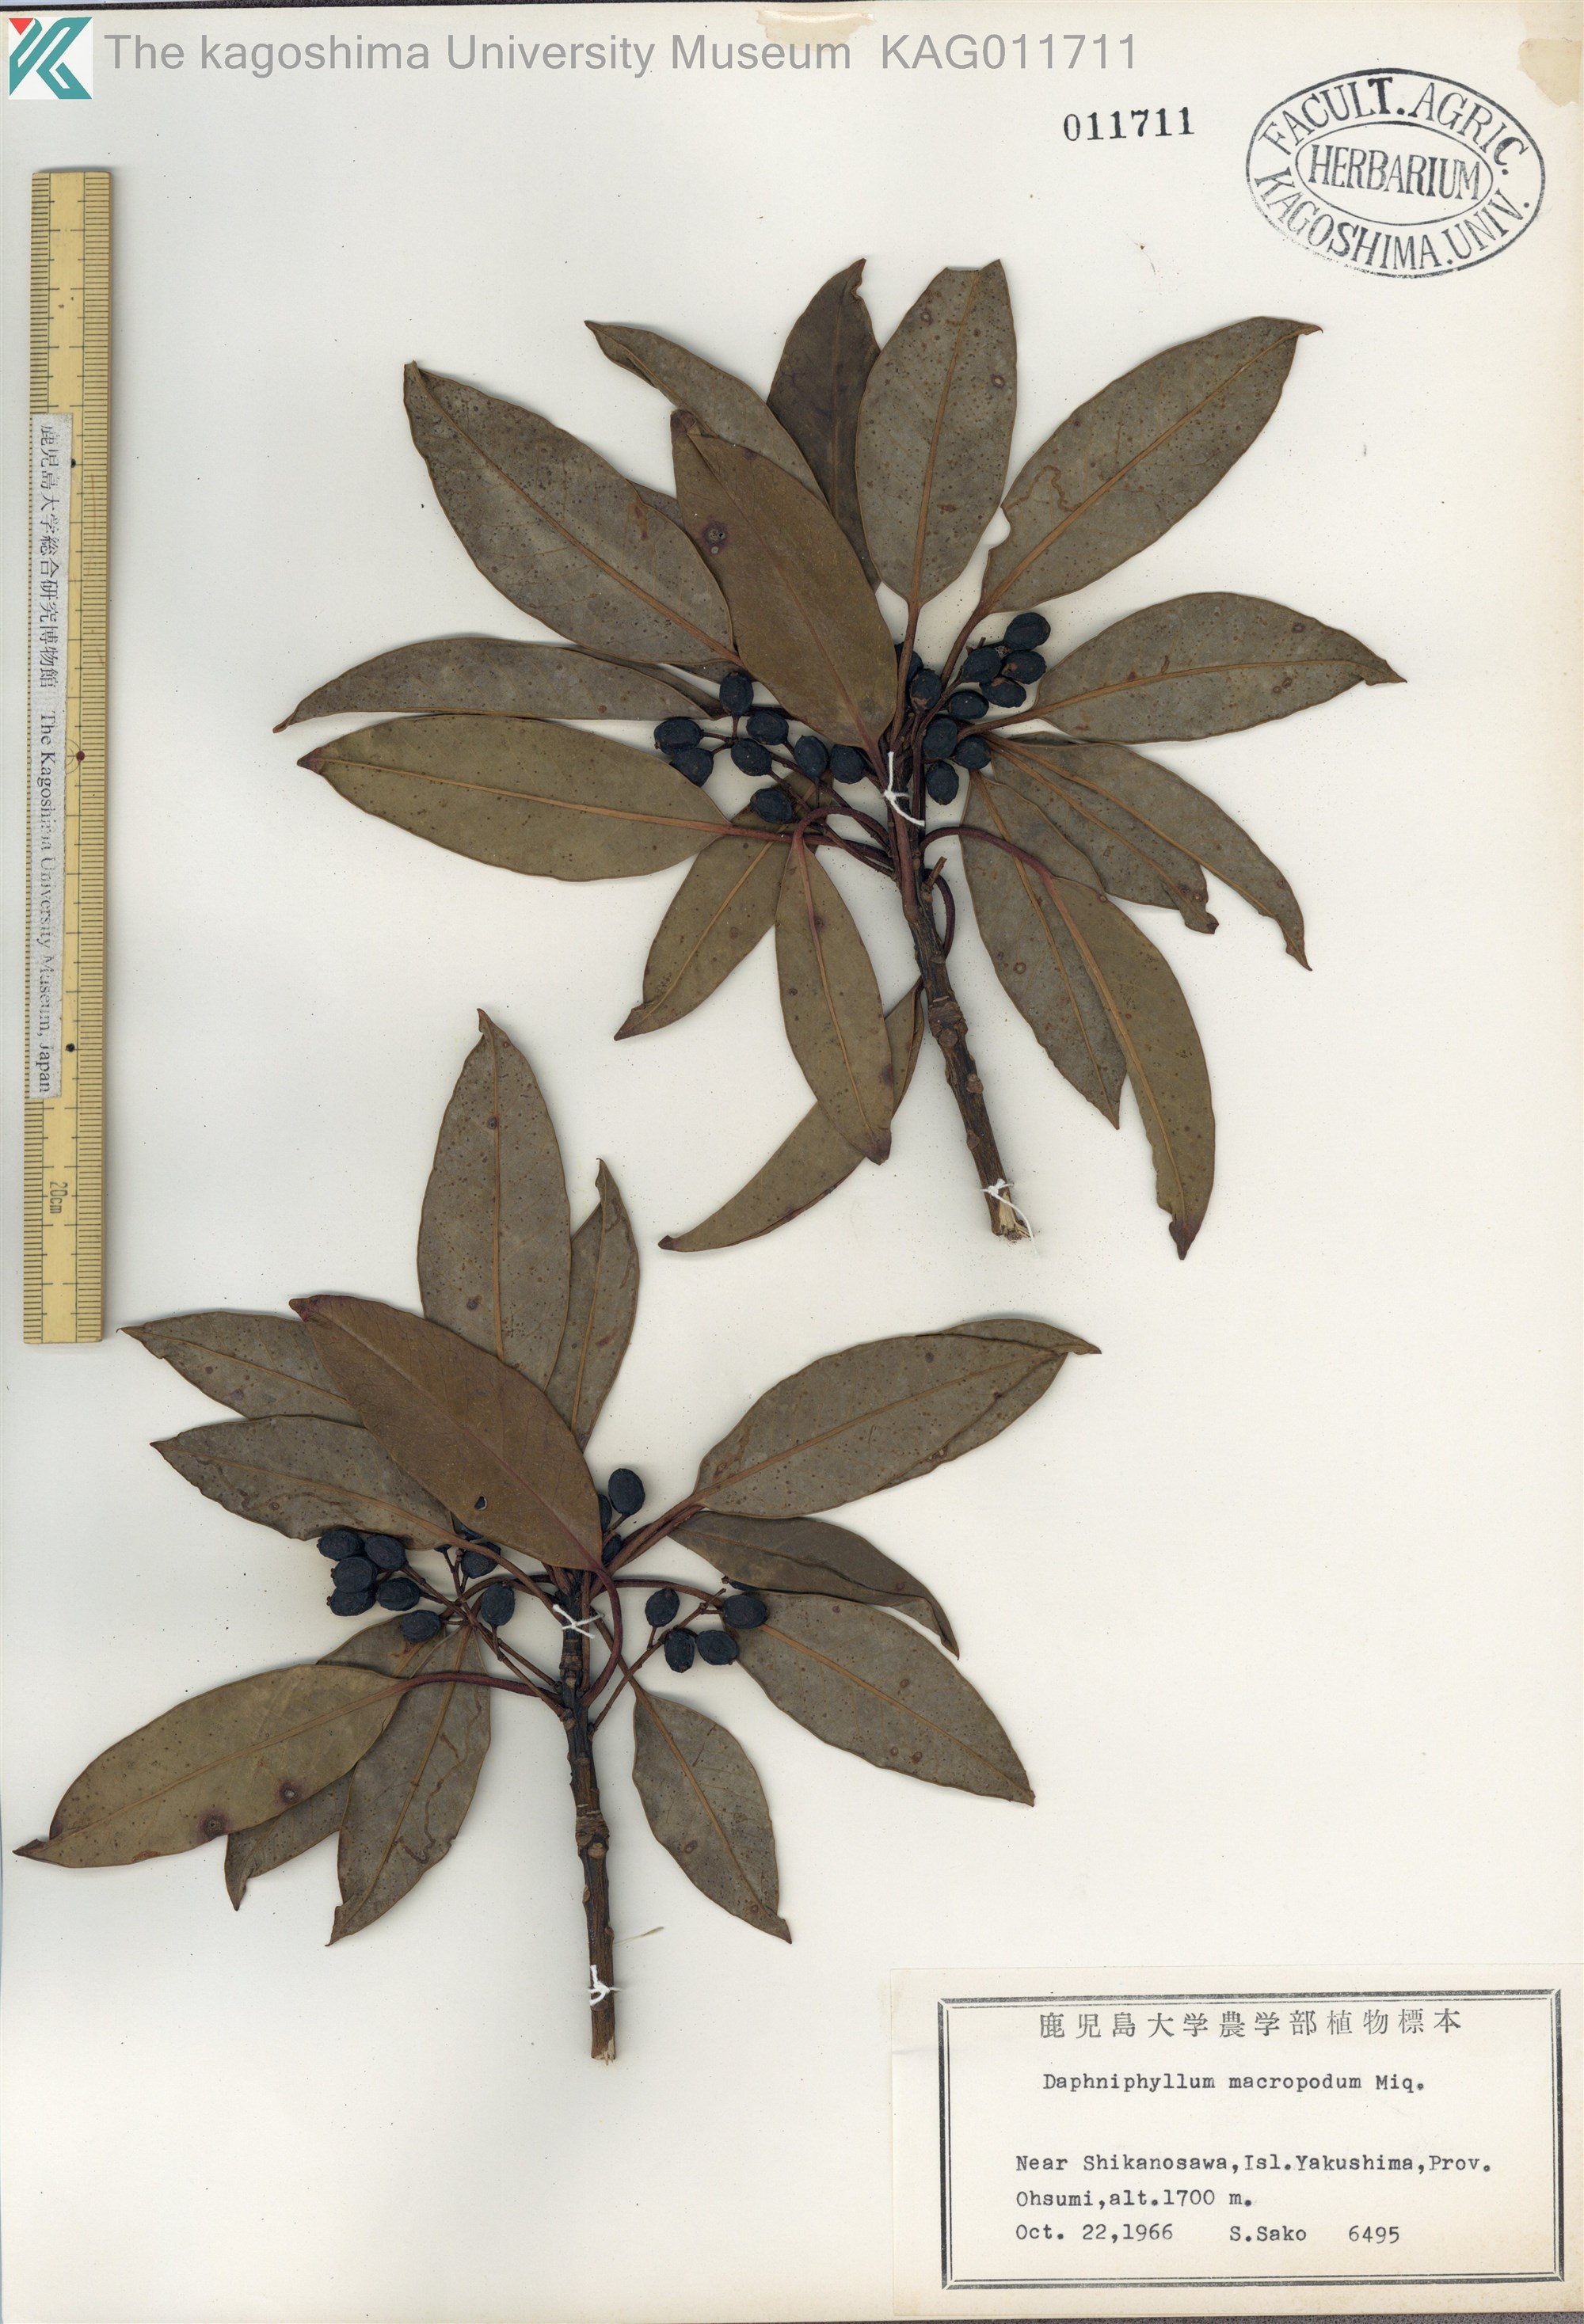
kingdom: Plantae
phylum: Tracheophyta
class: Magnoliopsida
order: Saxifragales
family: Daphniphyllaceae
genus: Daphniphyllum
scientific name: Daphniphyllum teijsmannii
